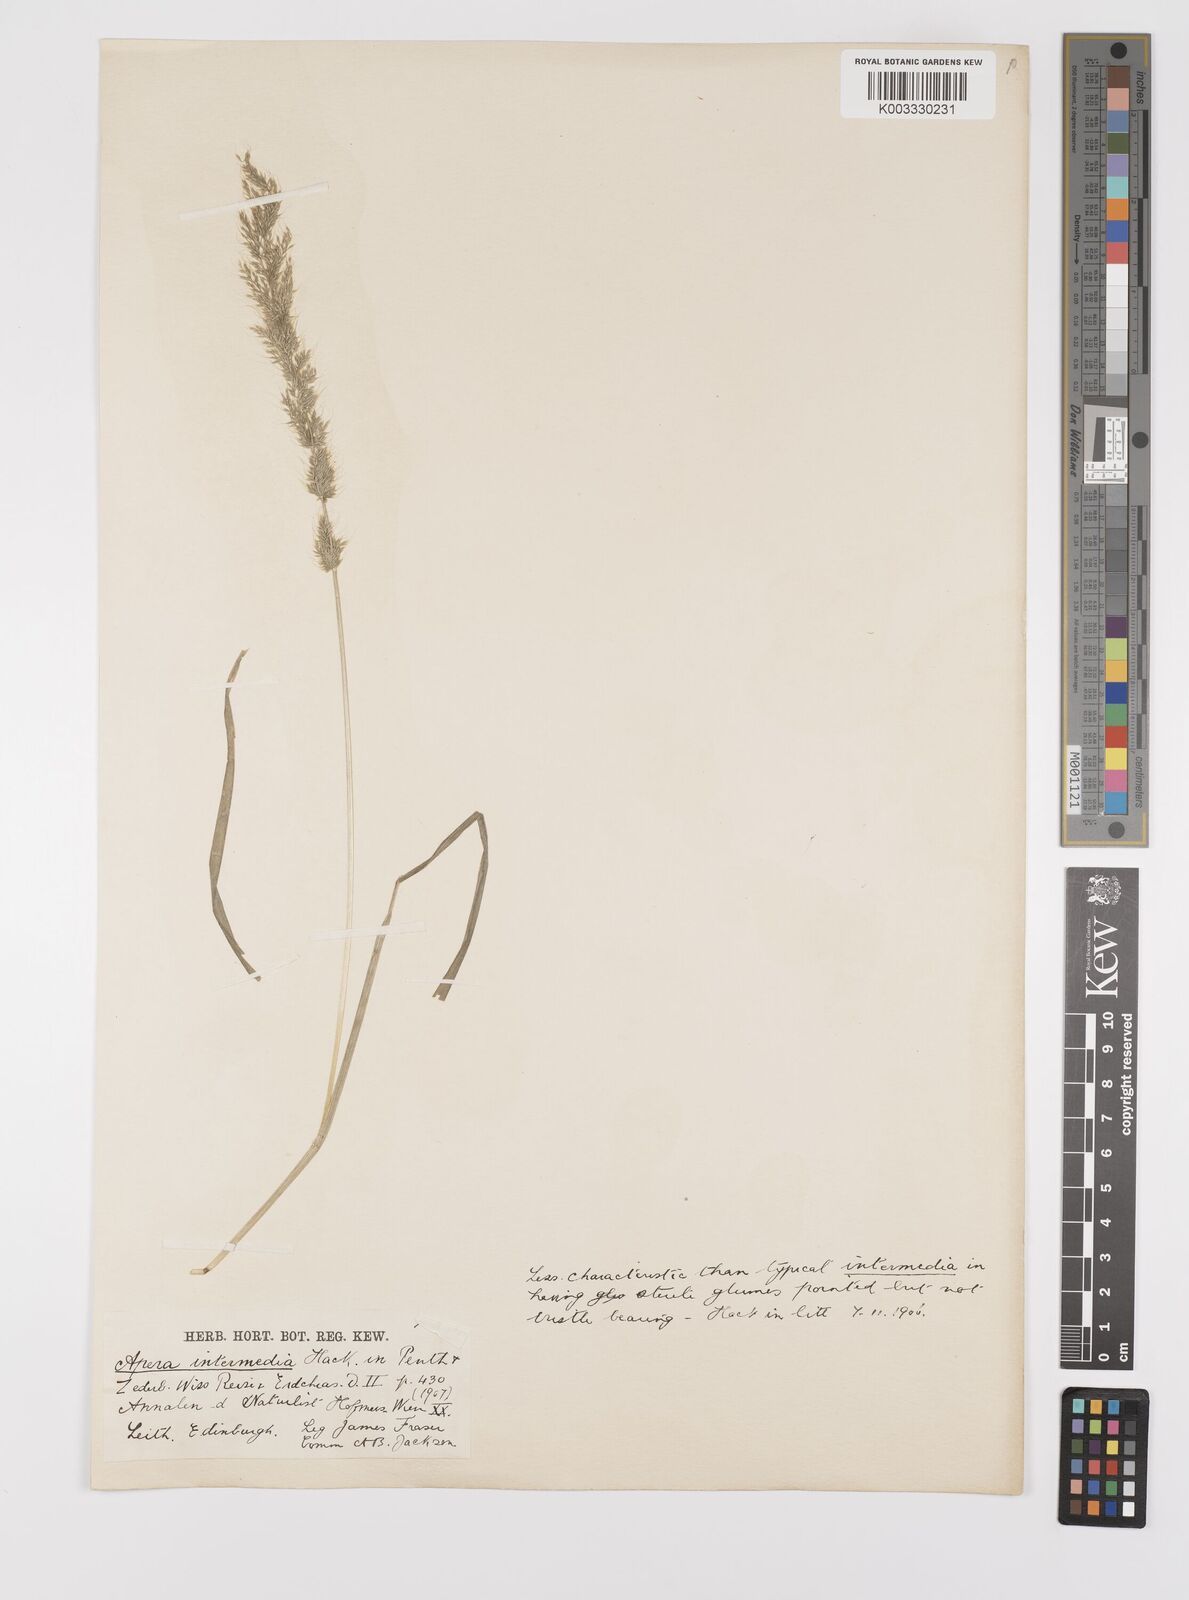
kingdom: Plantae
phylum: Tracheophyta
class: Liliopsida
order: Poales
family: Poaceae
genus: Apera
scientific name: Apera intermedia
